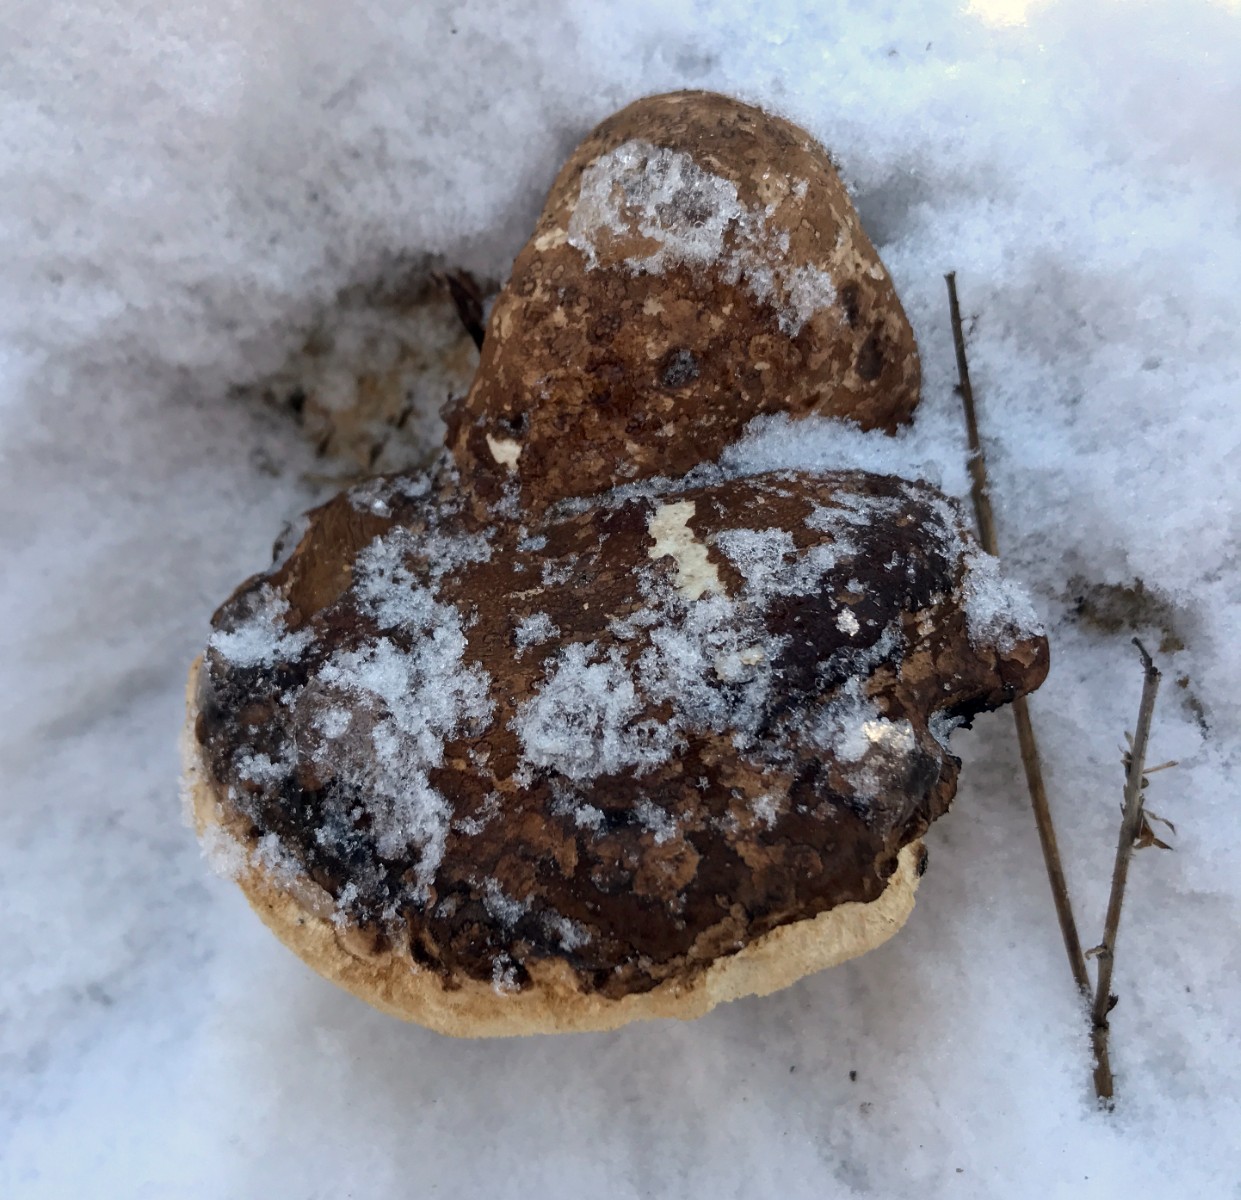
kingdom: Fungi
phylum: Basidiomycota
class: Agaricomycetes
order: Polyporales
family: Fomitopsidaceae
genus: Fomitopsis
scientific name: Fomitopsis betulina
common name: birkeporesvamp
